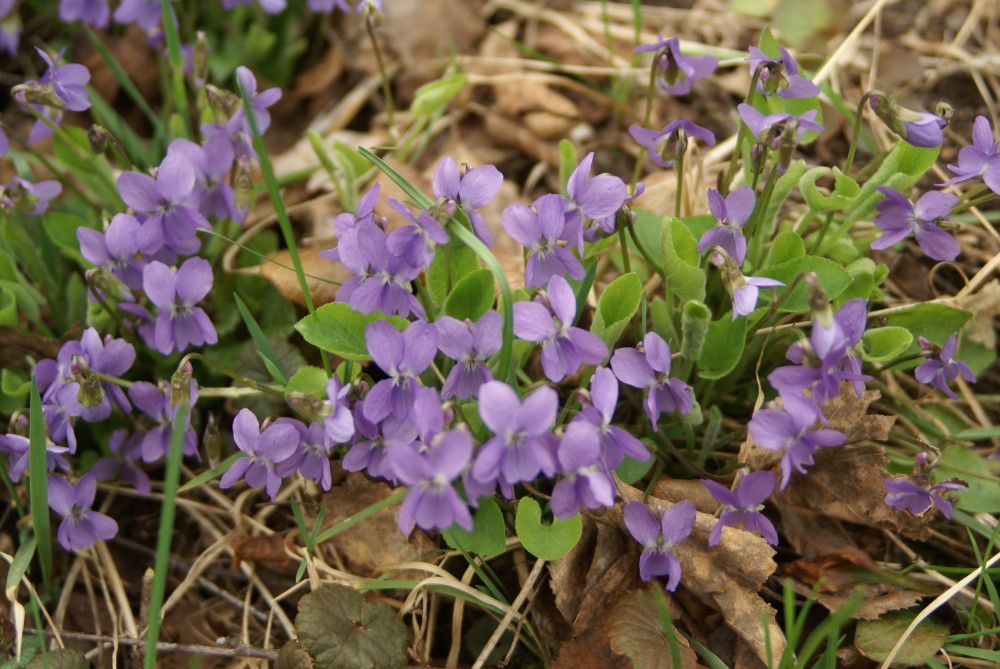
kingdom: Plantae
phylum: Tracheophyta
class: Magnoliopsida
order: Malpighiales
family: Violaceae
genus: Viola
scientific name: Viola rupestris
